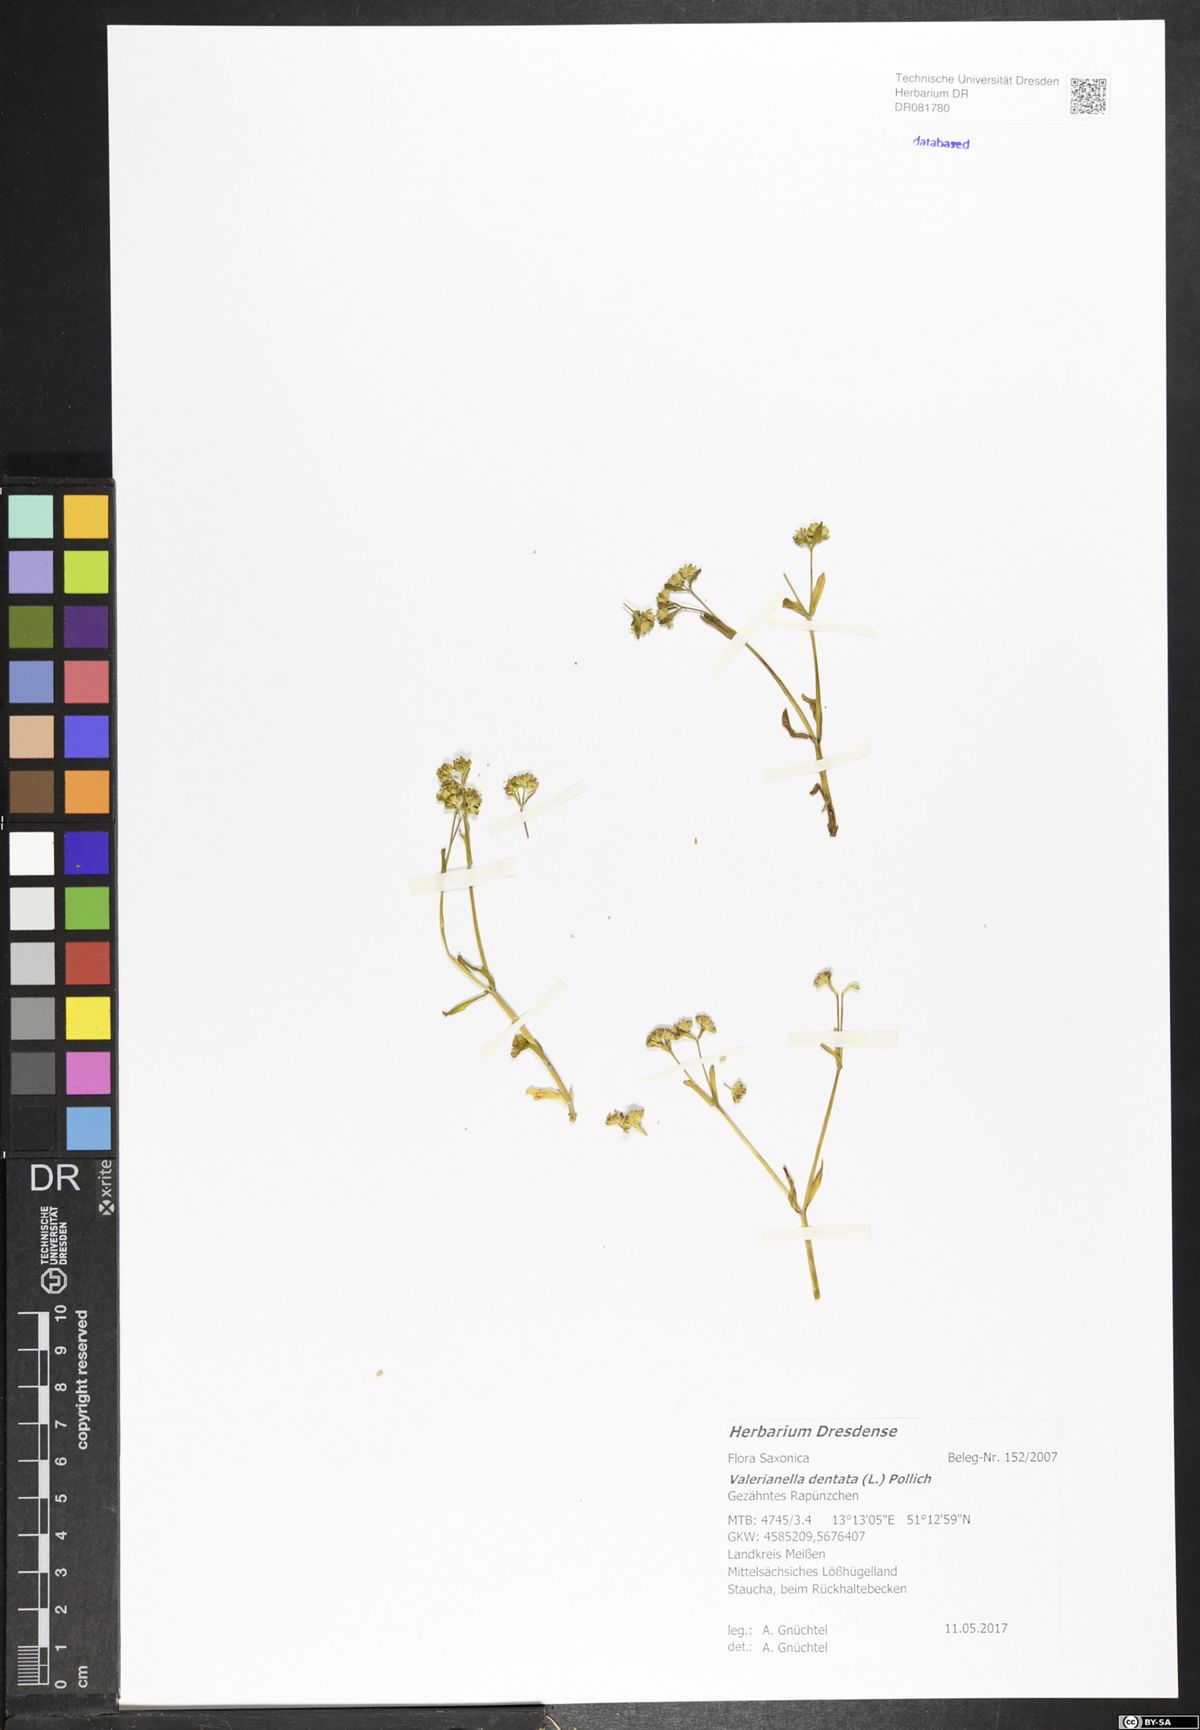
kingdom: Plantae
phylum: Tracheophyta
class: Magnoliopsida
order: Dipsacales
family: Caprifoliaceae
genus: Valerianella
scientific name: Valerianella dentata
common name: Narrow-fruited cornsalad
